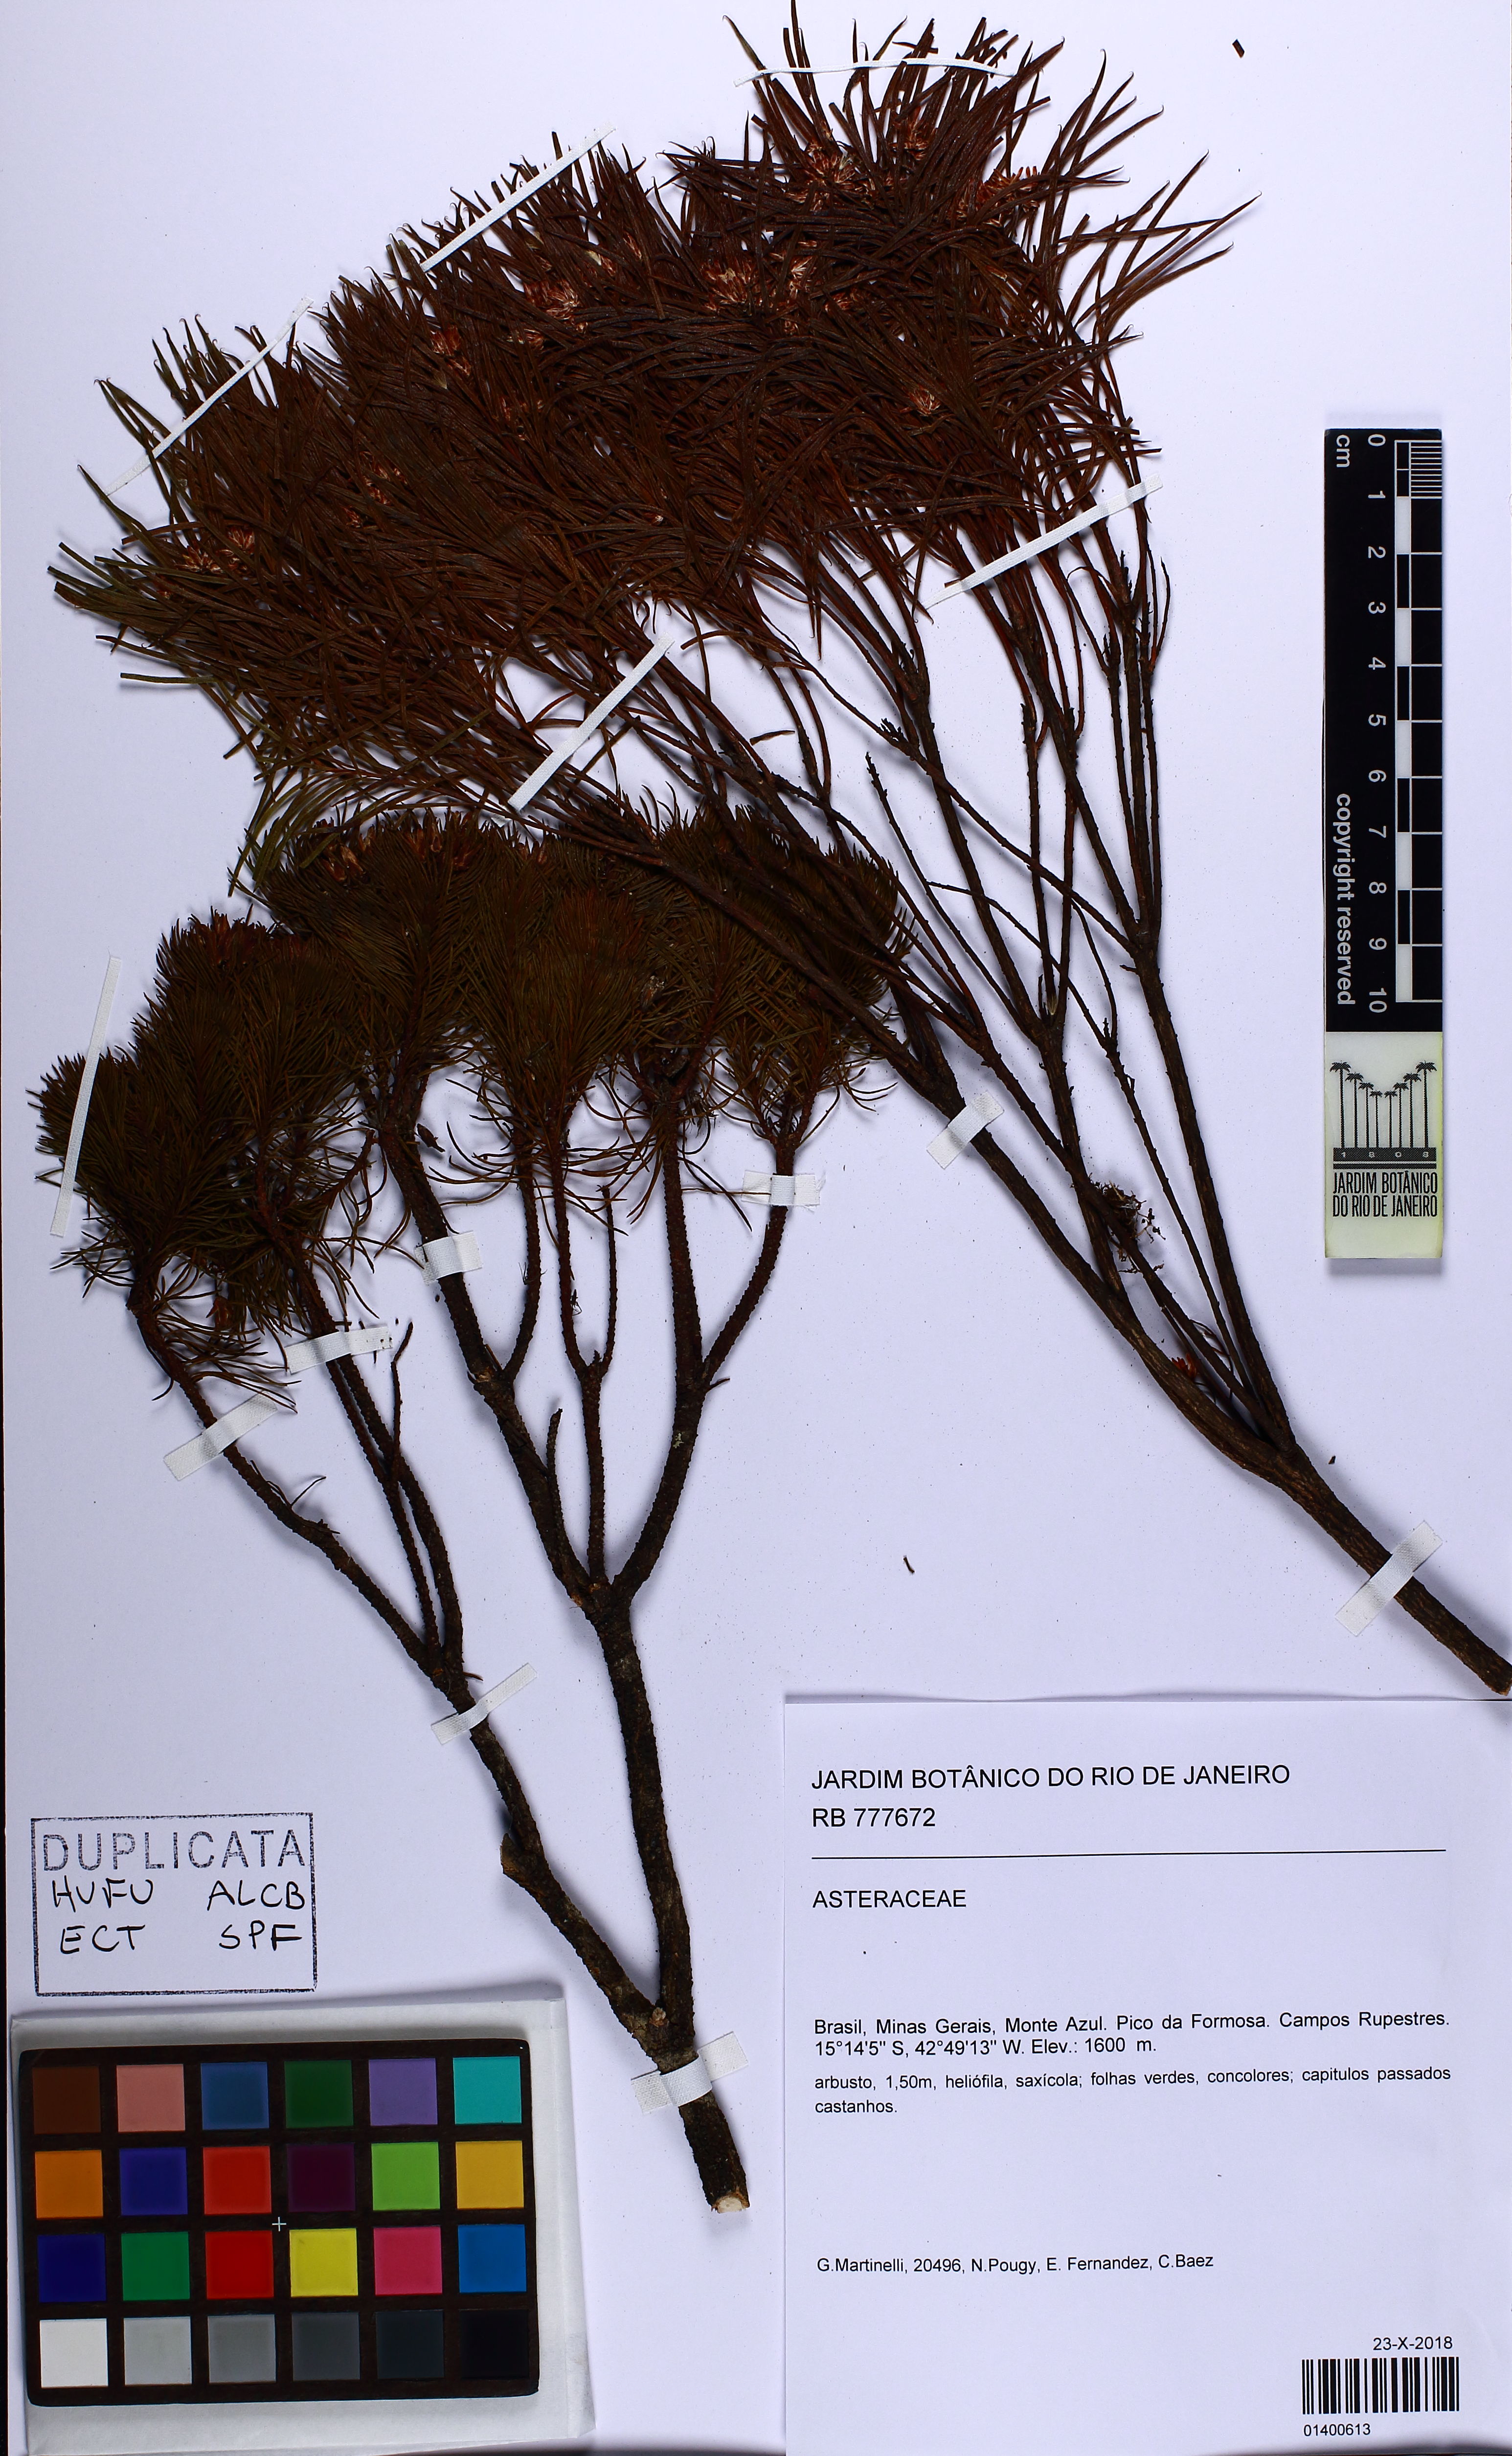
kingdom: Plantae
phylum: Tracheophyta
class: Magnoliopsida
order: Asterales
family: Asteraceae
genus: Pseudobrickellia
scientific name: Pseudobrickellia angustissima
